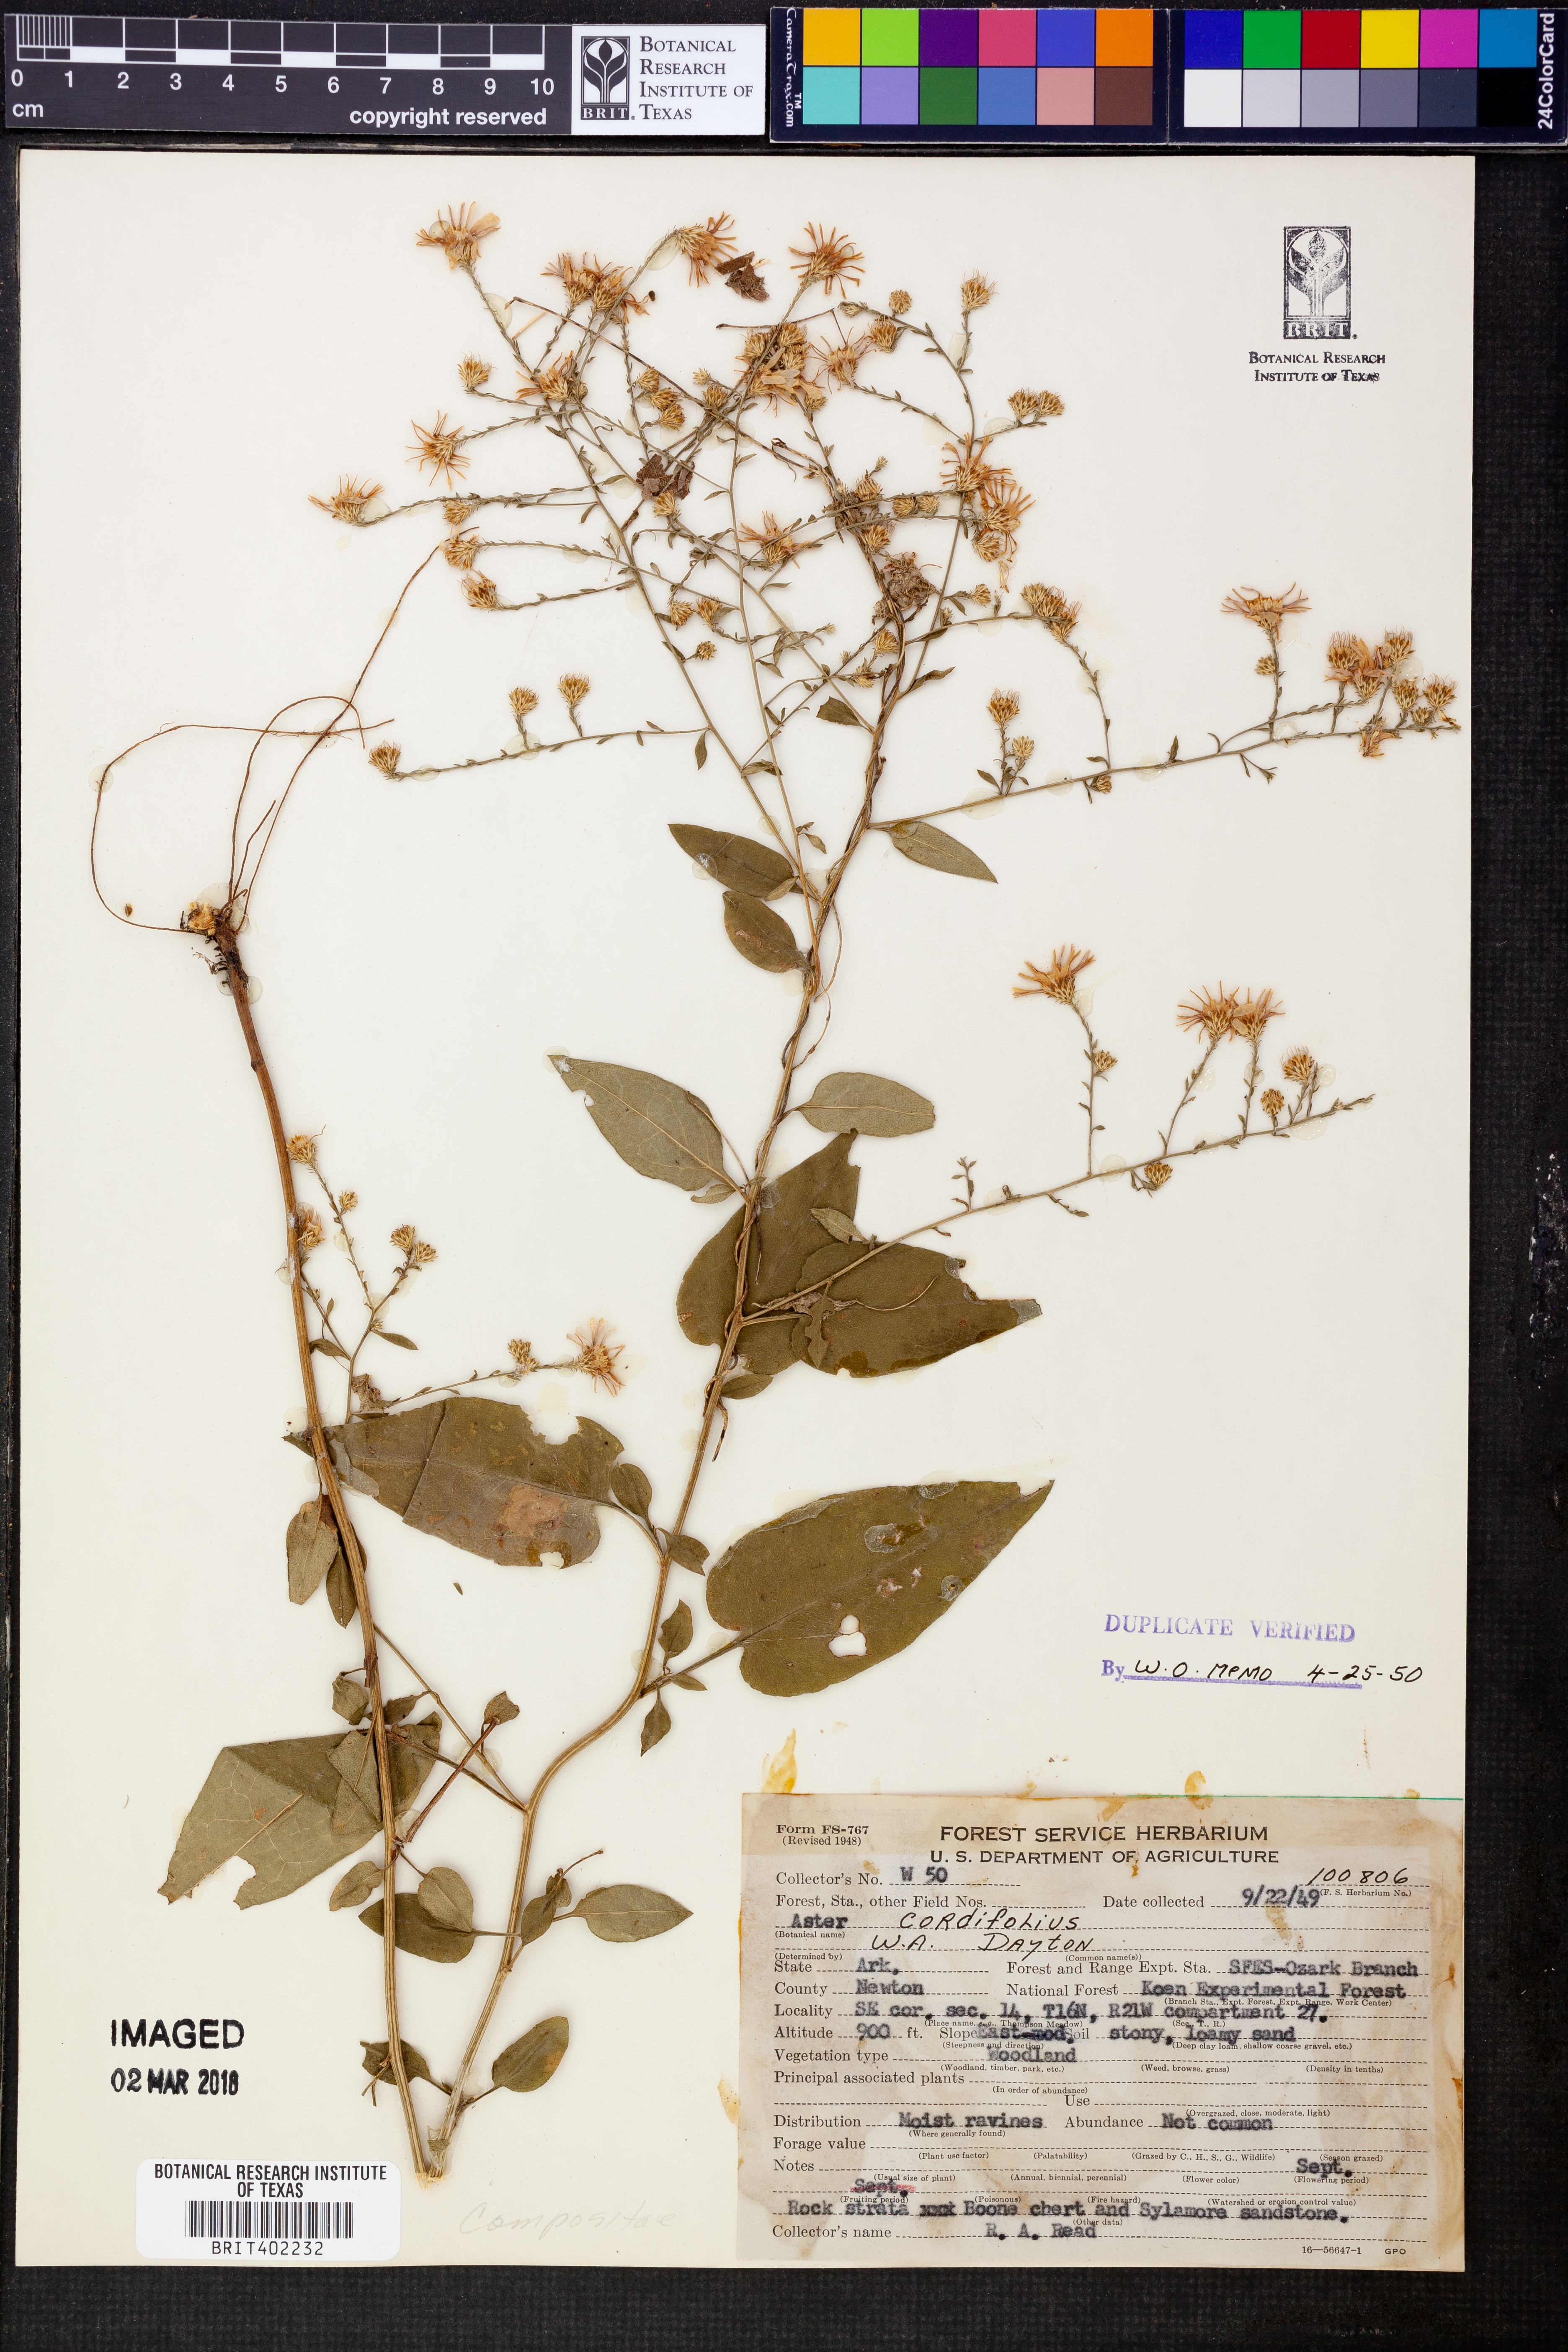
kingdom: Plantae
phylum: Tracheophyta
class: Magnoliopsida
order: Asterales
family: Asteraceae
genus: Aster
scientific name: Aster cordifolius
